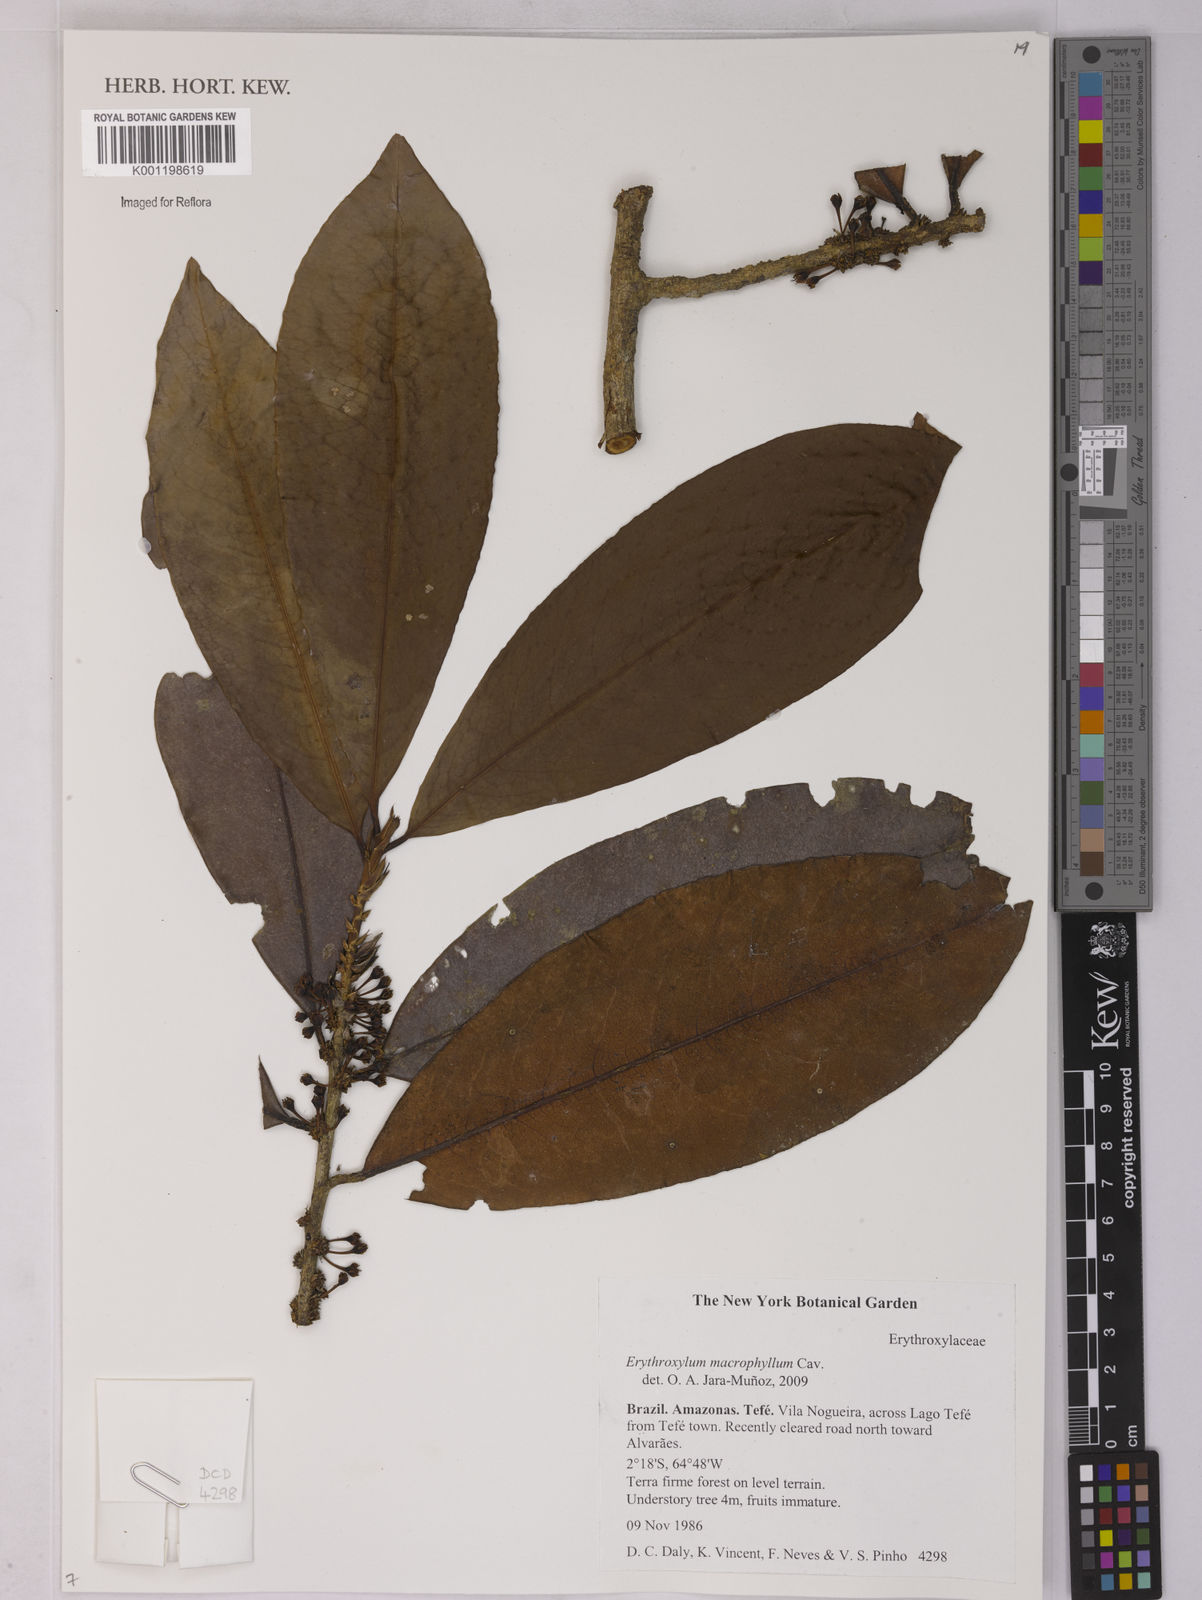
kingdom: Plantae
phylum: Tracheophyta
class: Magnoliopsida
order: Malpighiales
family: Erythroxylaceae
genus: Erythroxylum
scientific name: Erythroxylum macrophyllum
